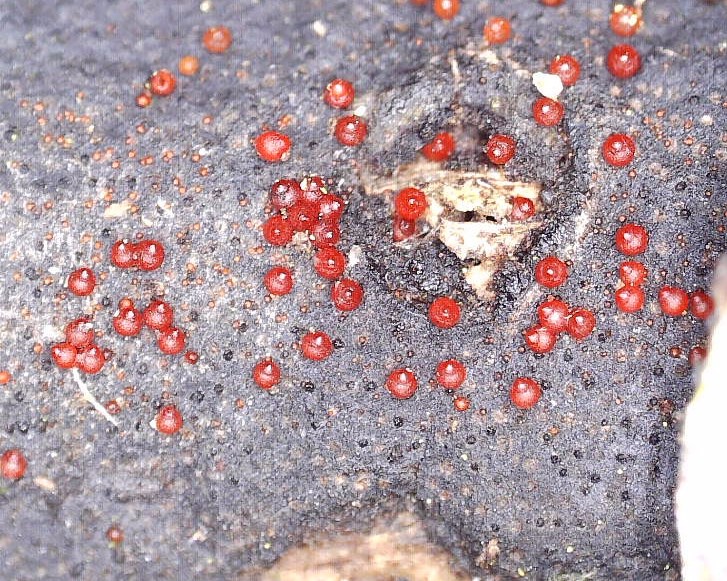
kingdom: Fungi
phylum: Ascomycota
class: Sordariomycetes
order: Hypocreales
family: Nectriaceae
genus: Dialonectria
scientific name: Dialonectria episphaeria
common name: kulskorpe-cinnobersvamp
